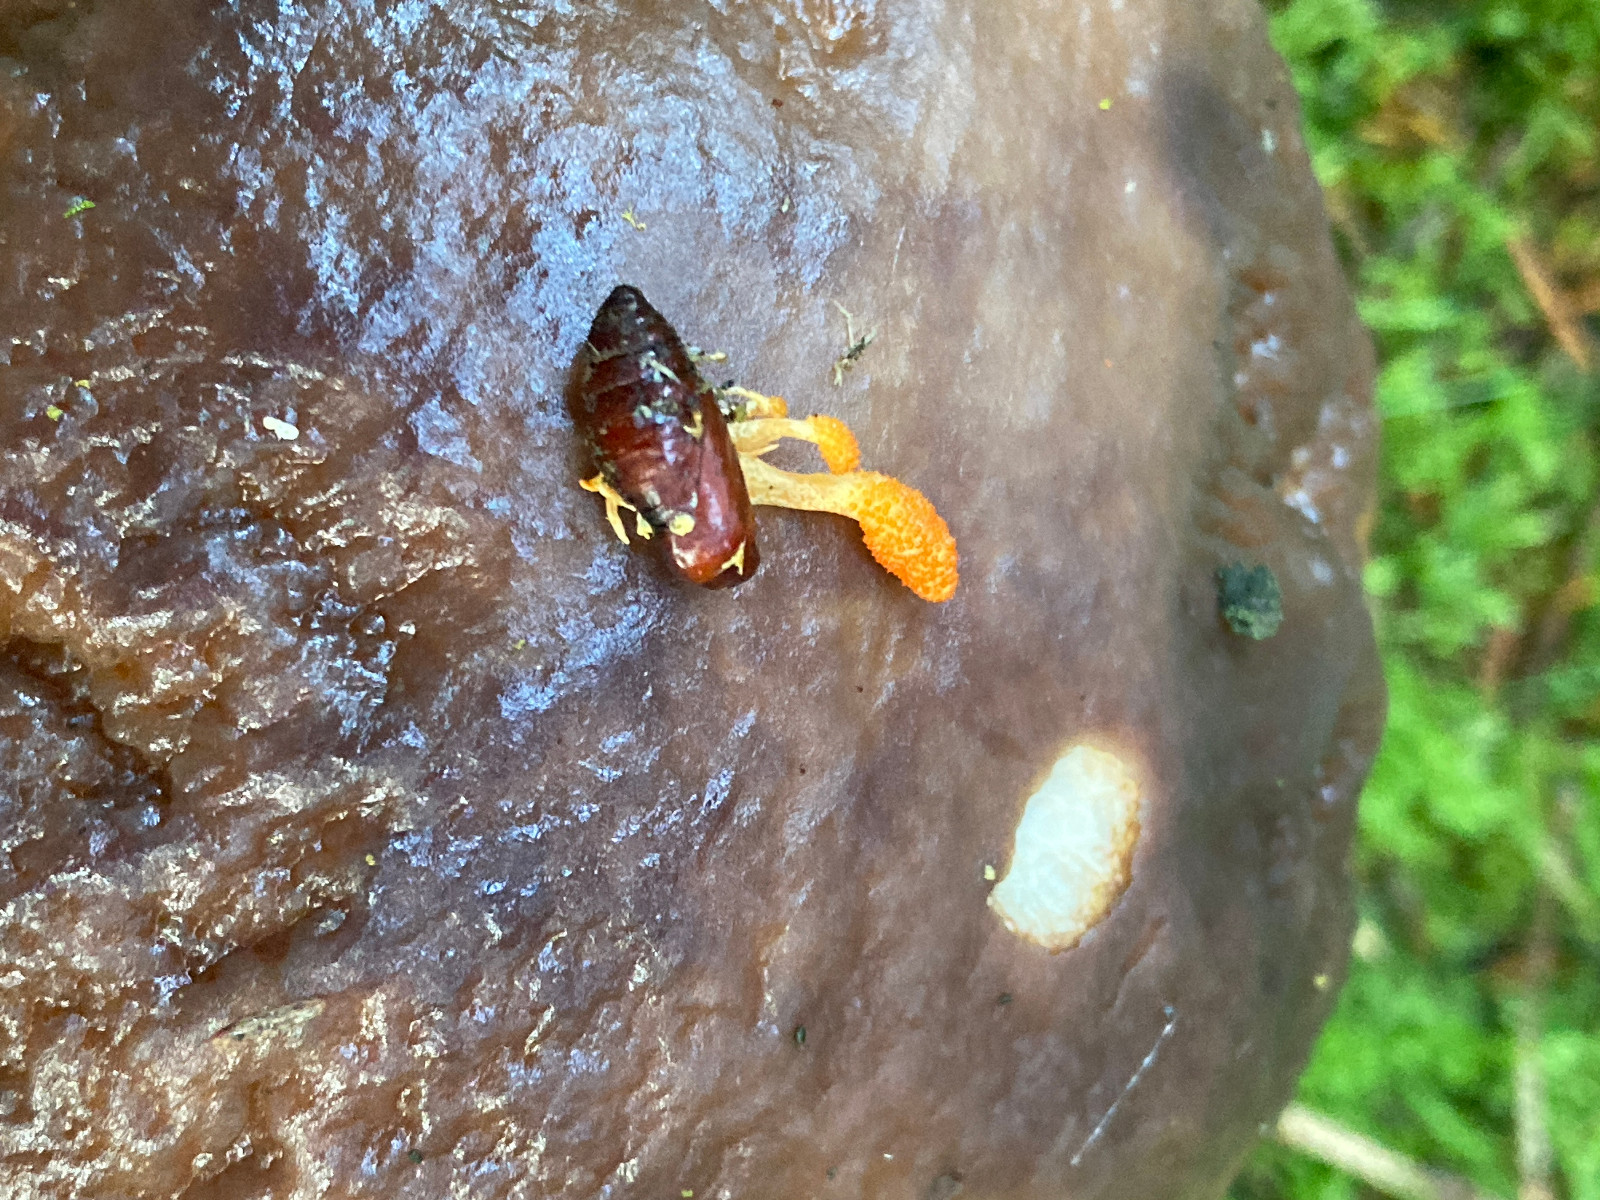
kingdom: Fungi
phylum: Ascomycota
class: Sordariomycetes
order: Hypocreales
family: Cordycipitaceae
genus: Cordyceps
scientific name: Cordyceps militaris
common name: puppe-snyltekølle
